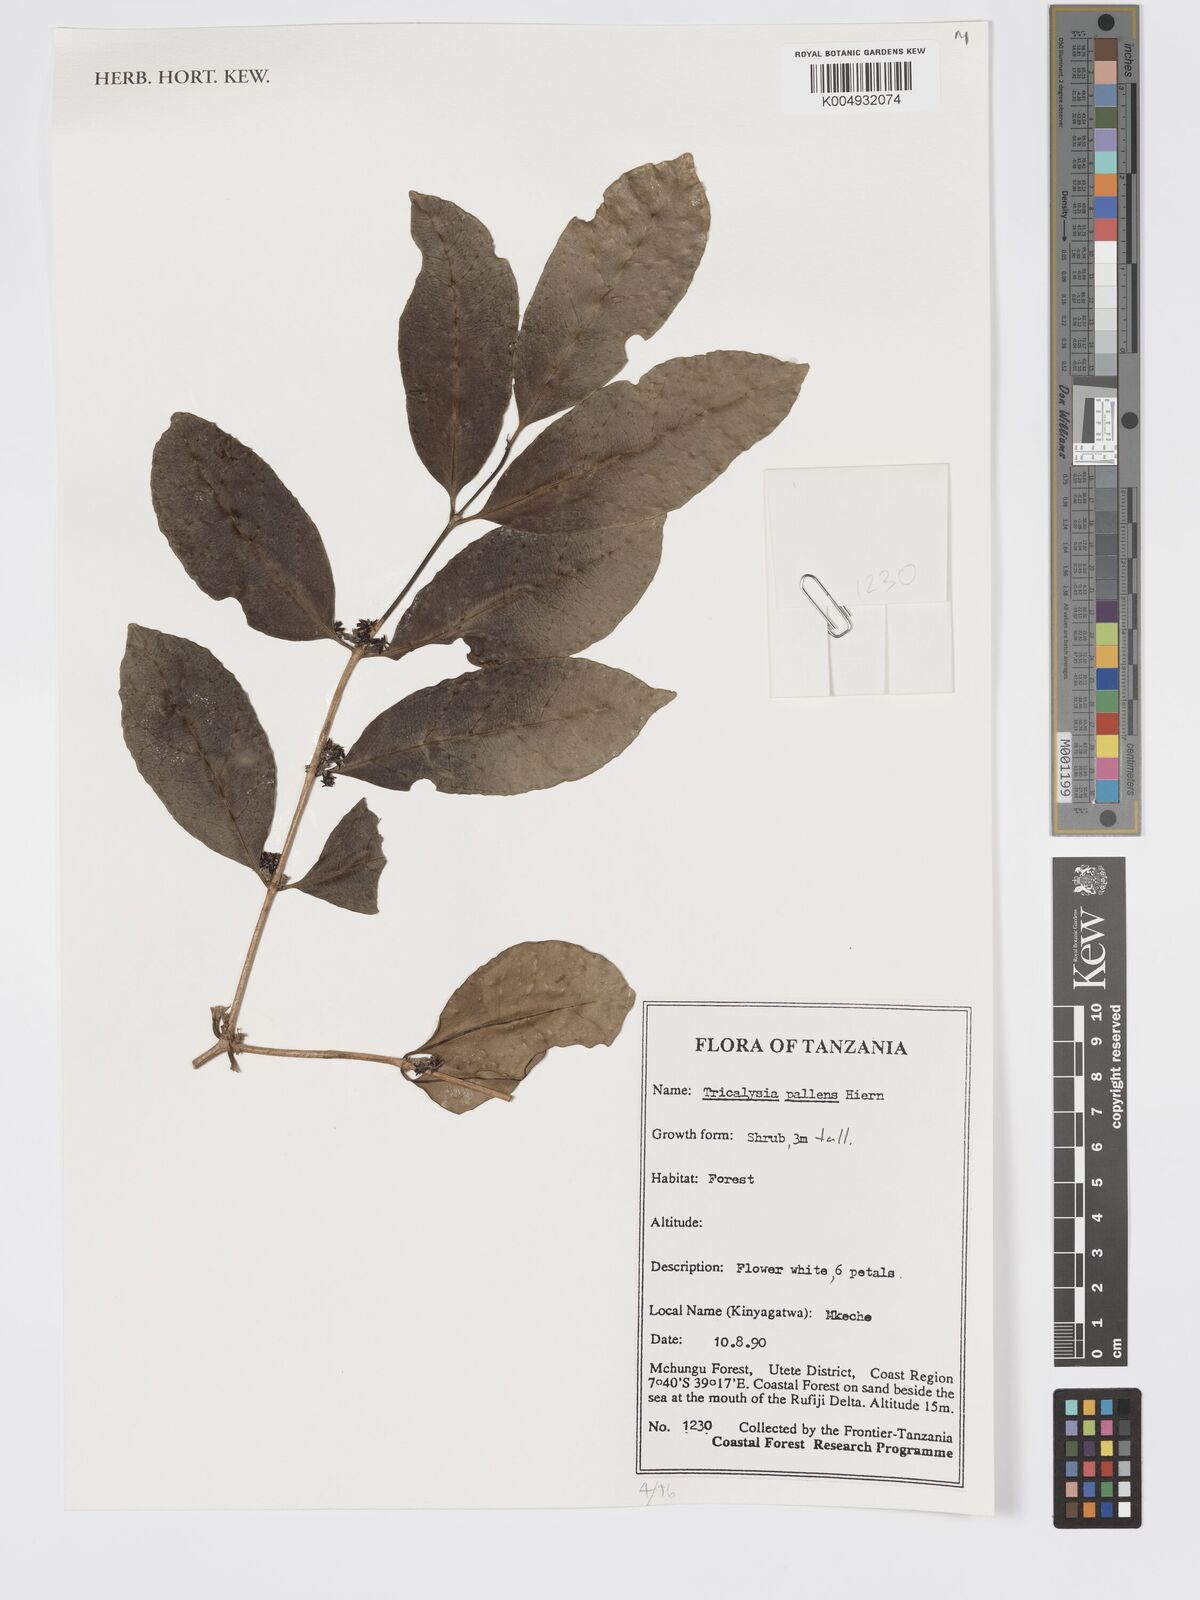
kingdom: Plantae
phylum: Tracheophyta
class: Magnoliopsida
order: Gentianales
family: Rubiaceae
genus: Tricalysia
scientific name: Tricalysia pallens
